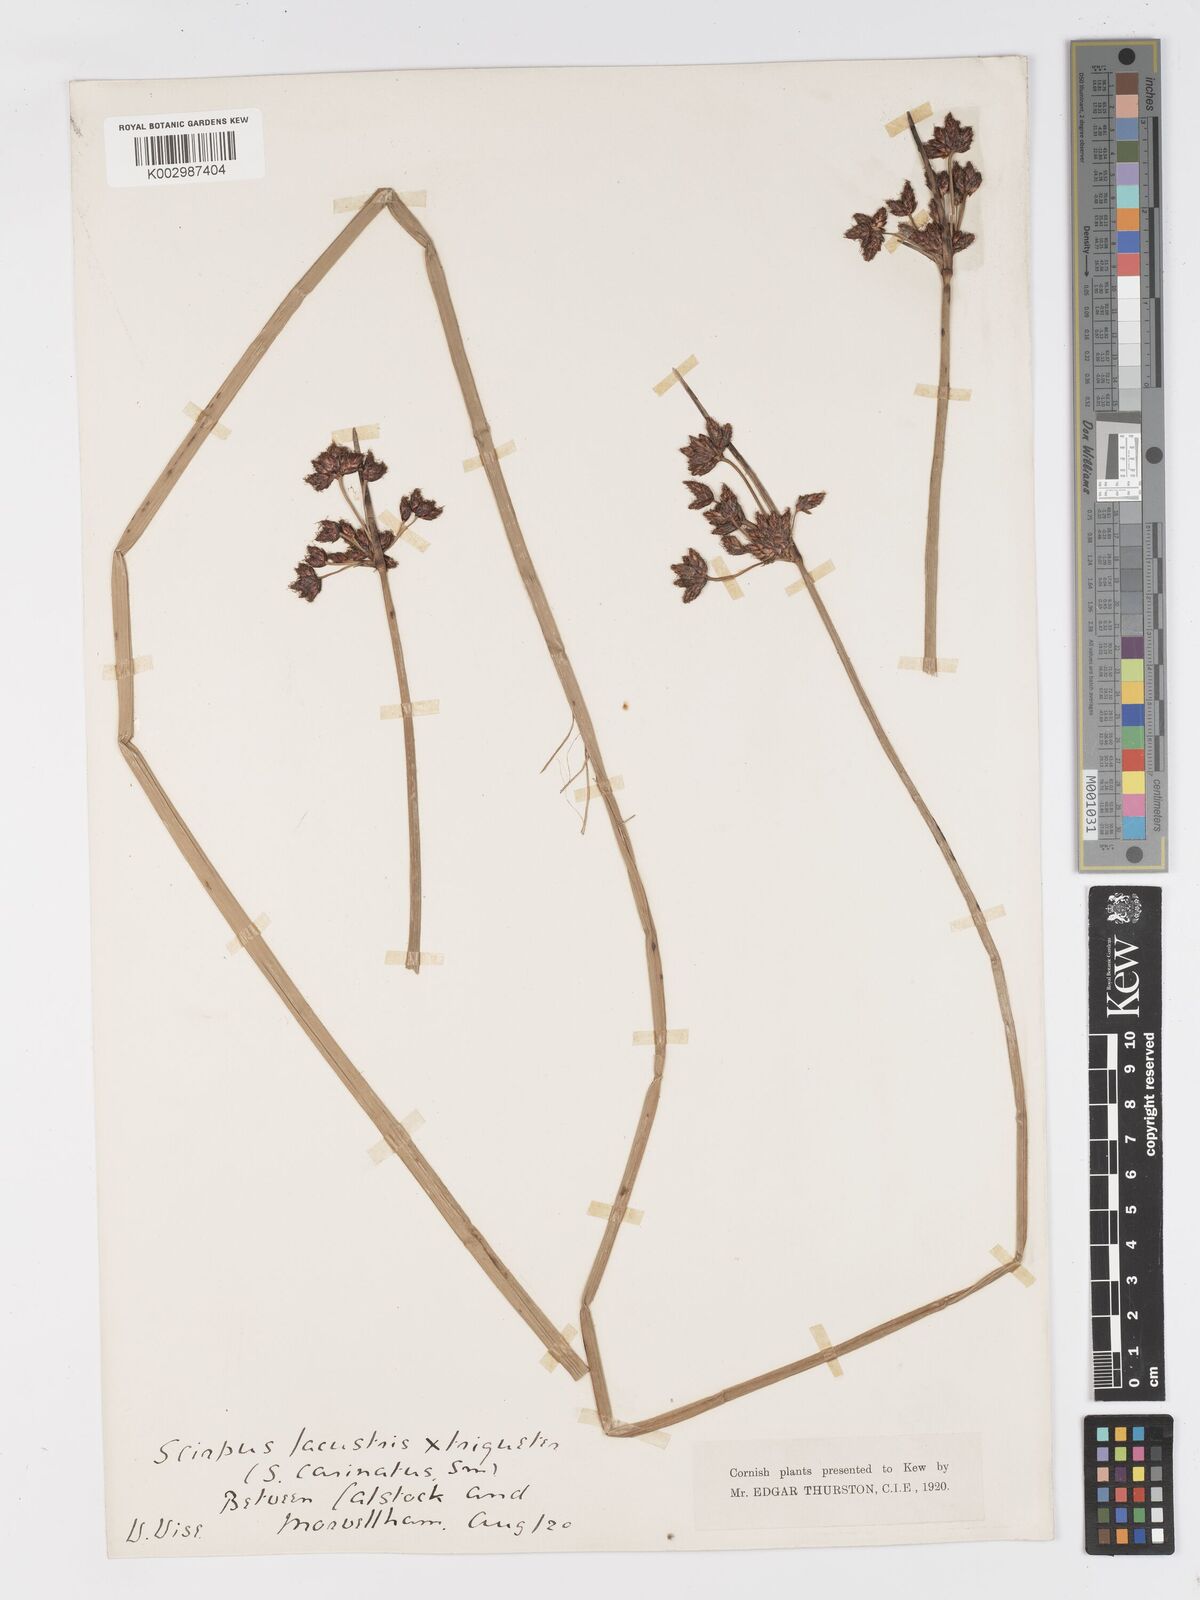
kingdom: Plantae
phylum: Tracheophyta
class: Liliopsida
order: Poales
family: Cyperaceae
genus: Schoenoplectus
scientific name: Schoenoplectus lacustris
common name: Common club-rush
